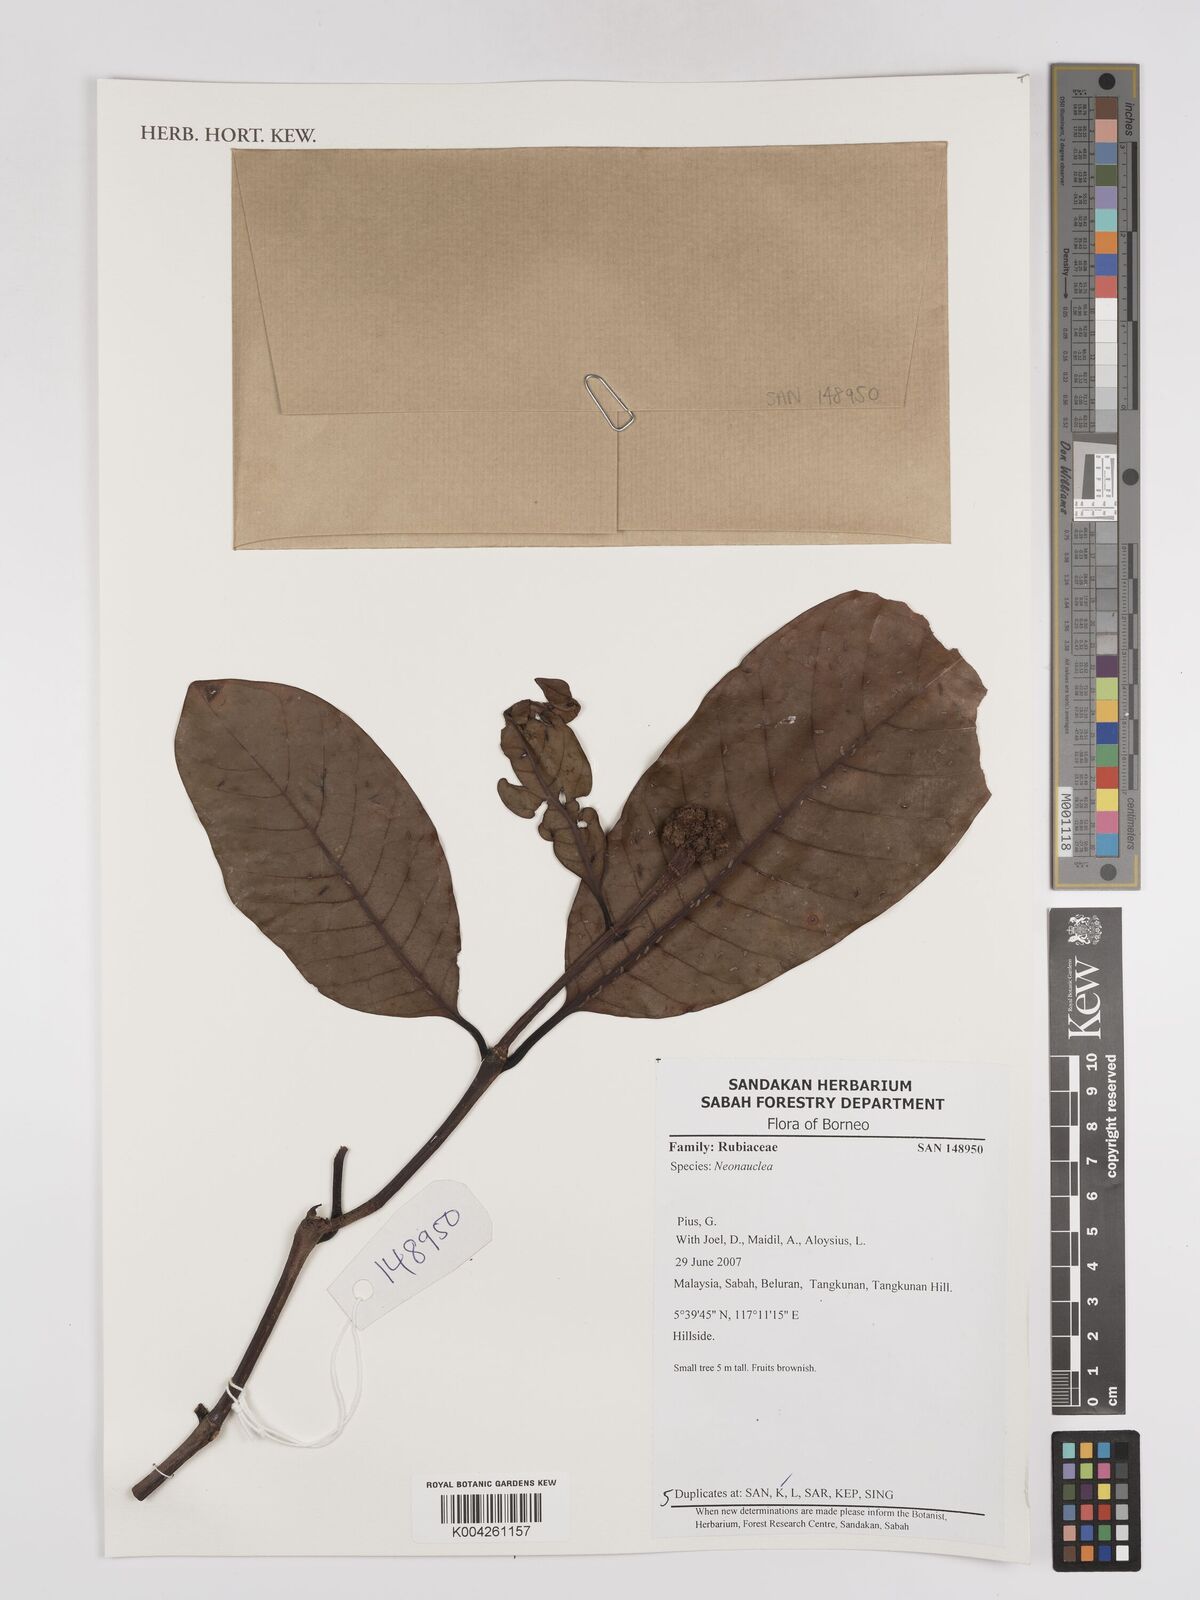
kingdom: Plantae
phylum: Tracheophyta
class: Magnoliopsida
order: Gentianales
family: Rubiaceae
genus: Neonauclea
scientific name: Neonauclea
